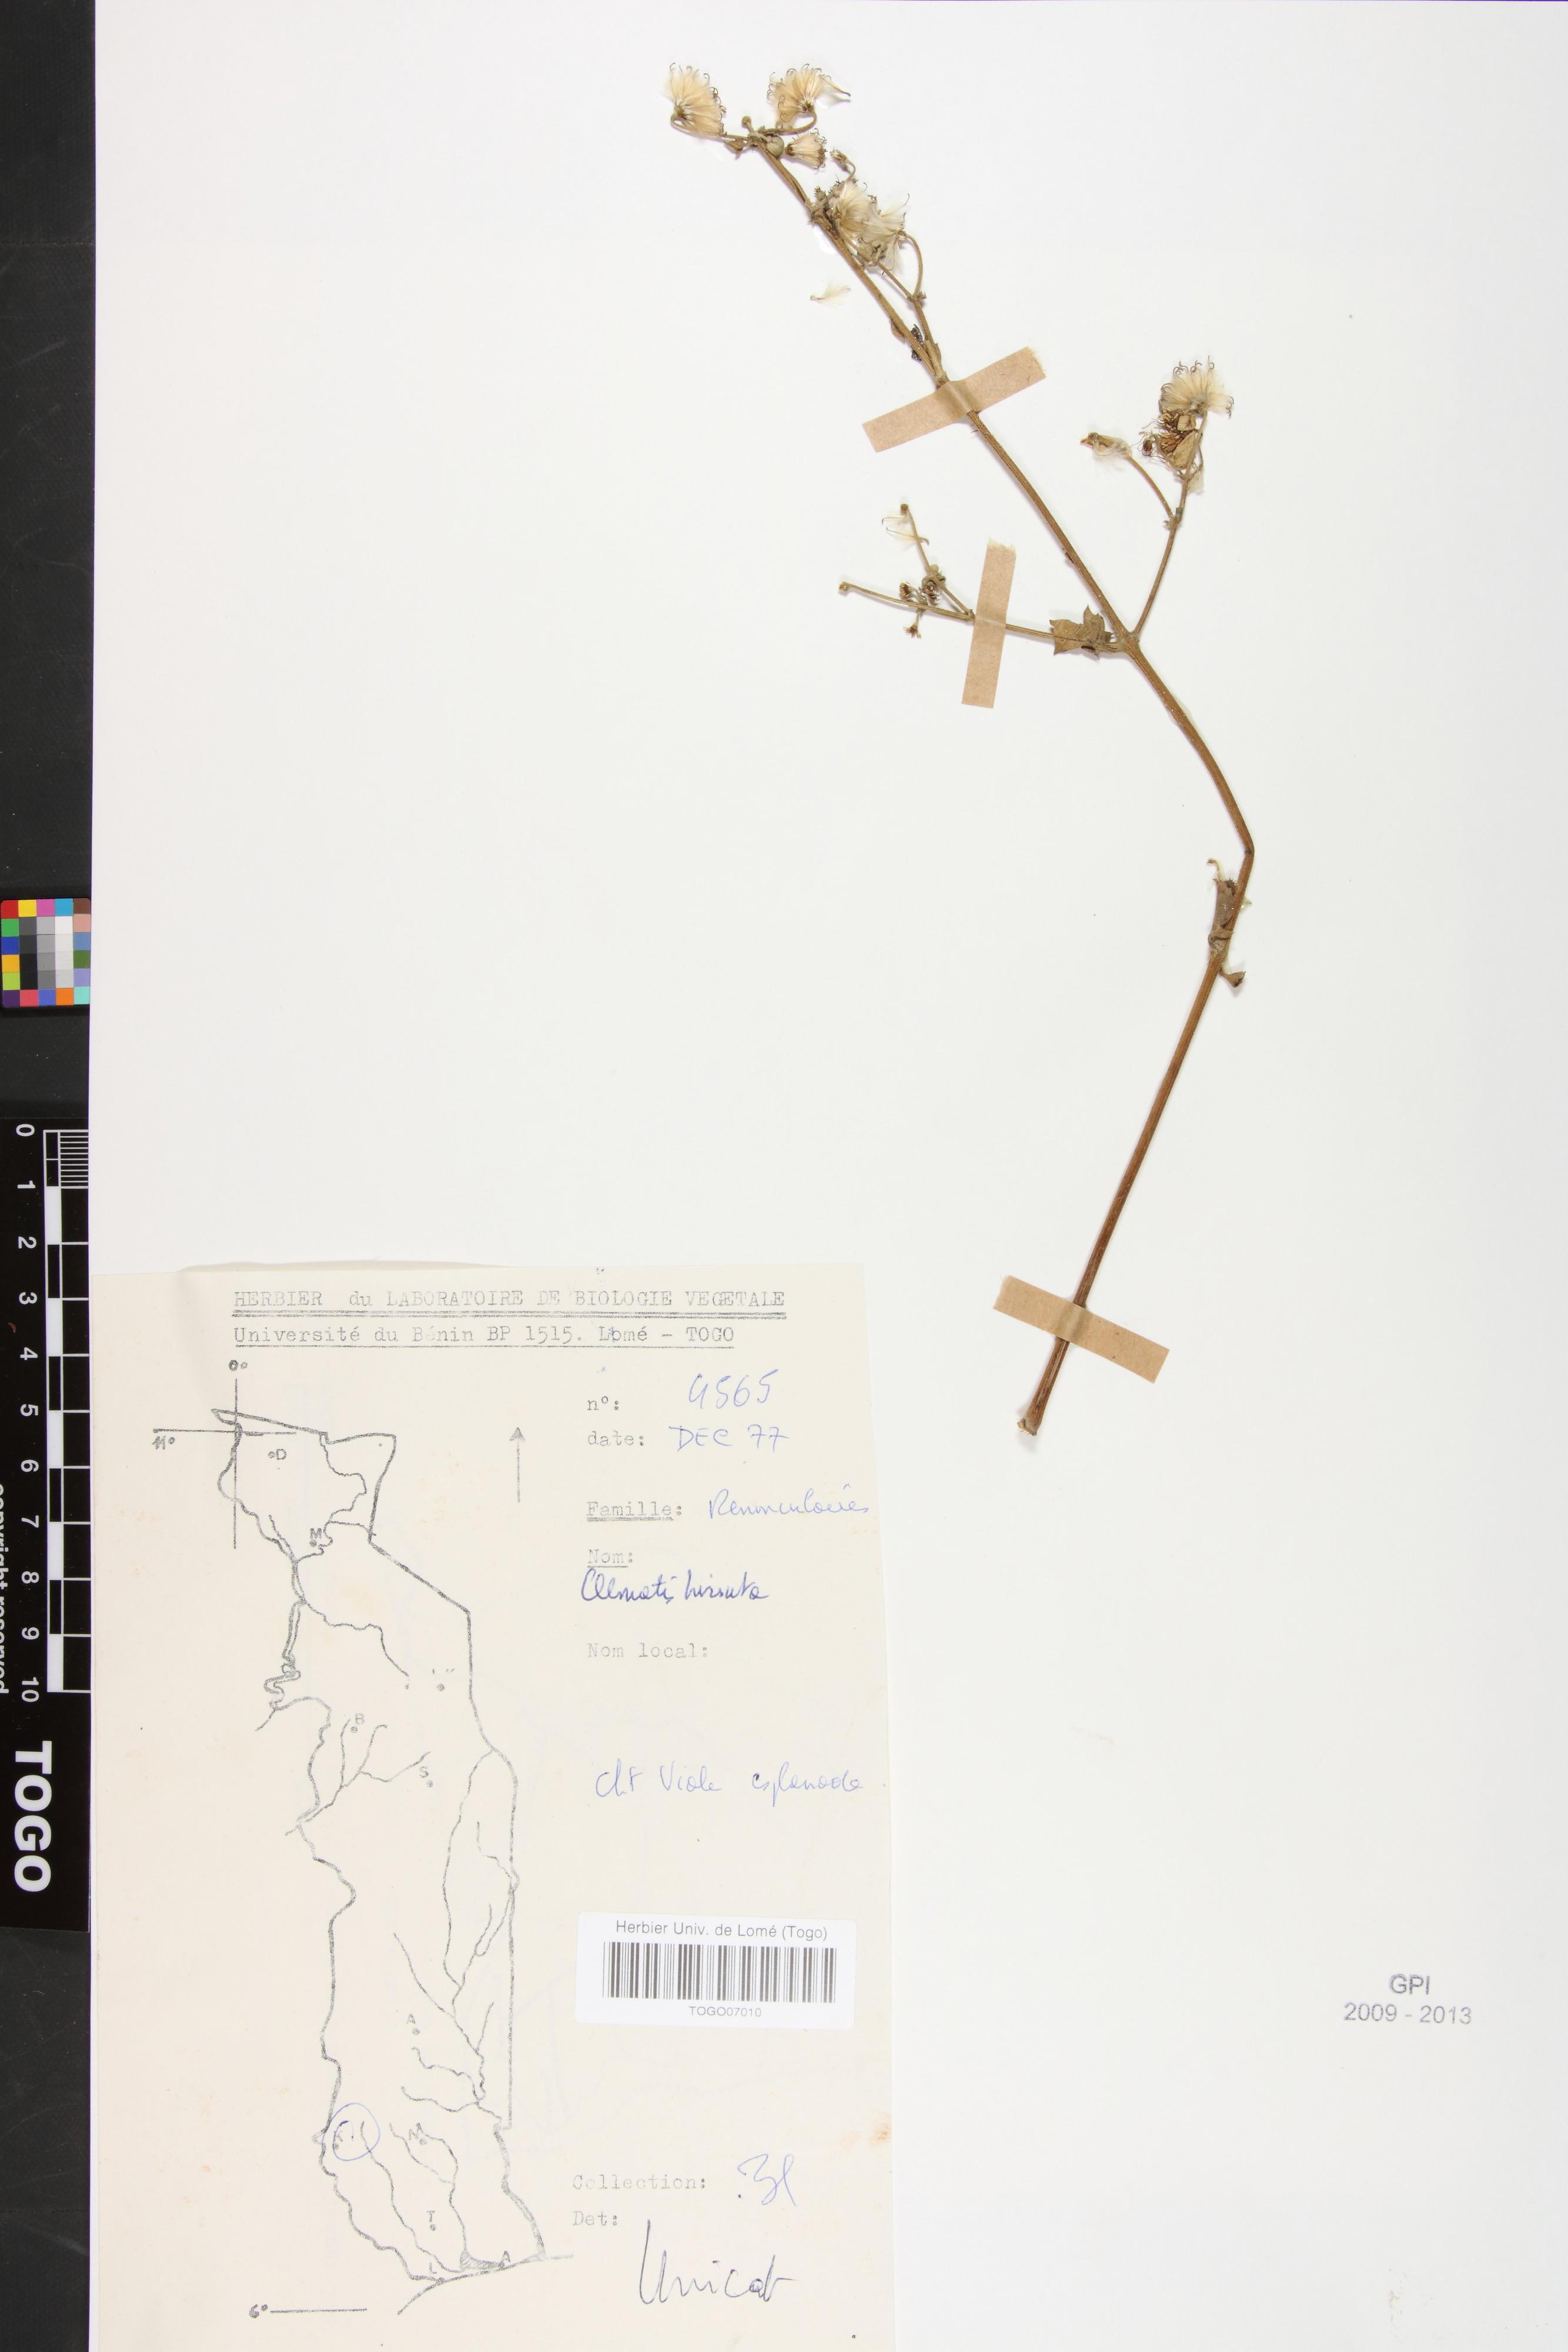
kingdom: Plantae
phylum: Tracheophyta
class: Magnoliopsida
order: Ranunculales
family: Ranunculaceae
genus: Clematis
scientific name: Clematis hirsuta
